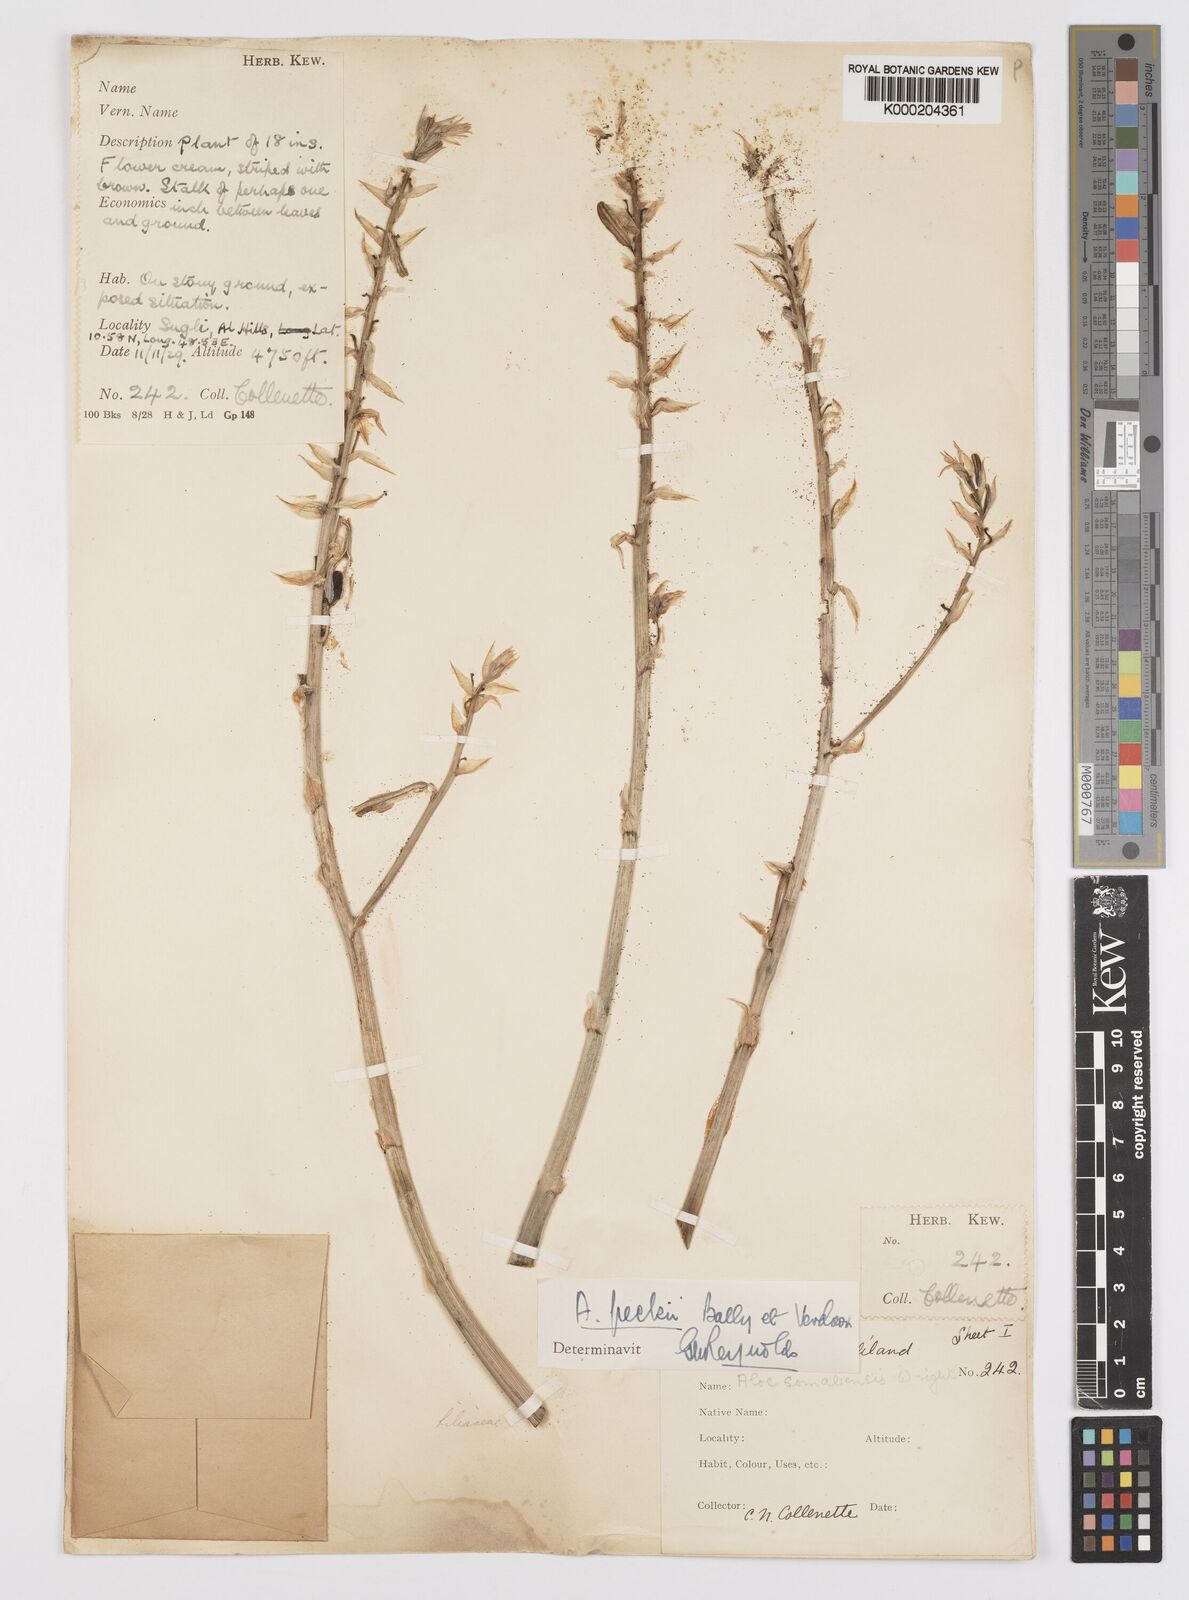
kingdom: Plantae
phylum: Tracheophyta
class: Liliopsida
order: Asparagales
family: Asphodelaceae
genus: Aloe
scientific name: Aloe peckii
